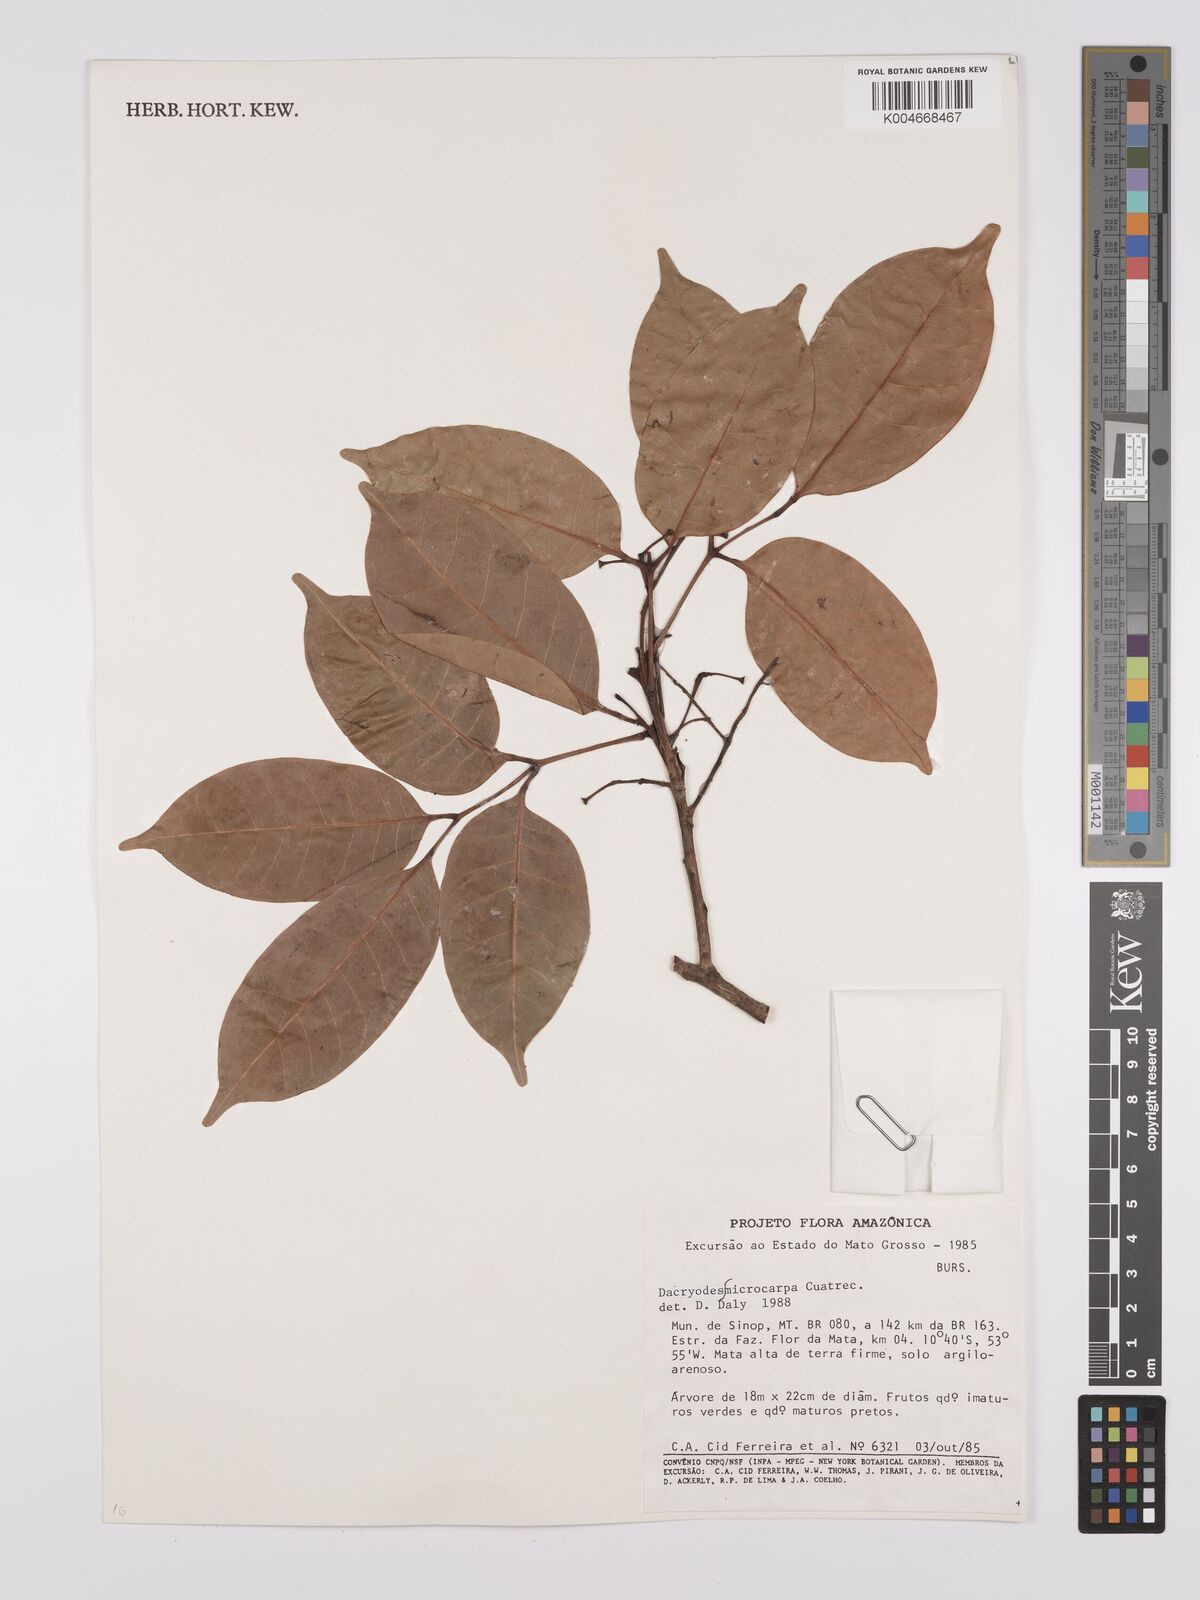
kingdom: Plantae
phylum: Tracheophyta
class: Magnoliopsida
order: Sapindales
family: Burseraceae
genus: Dacryodes
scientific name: Dacryodes microcarpa
